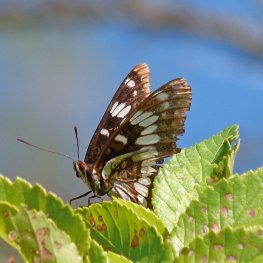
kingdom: Animalia
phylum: Arthropoda
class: Insecta
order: Lepidoptera
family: Nymphalidae
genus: Limenitis
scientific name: Limenitis lorquini
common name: Lorquin's Admiral
